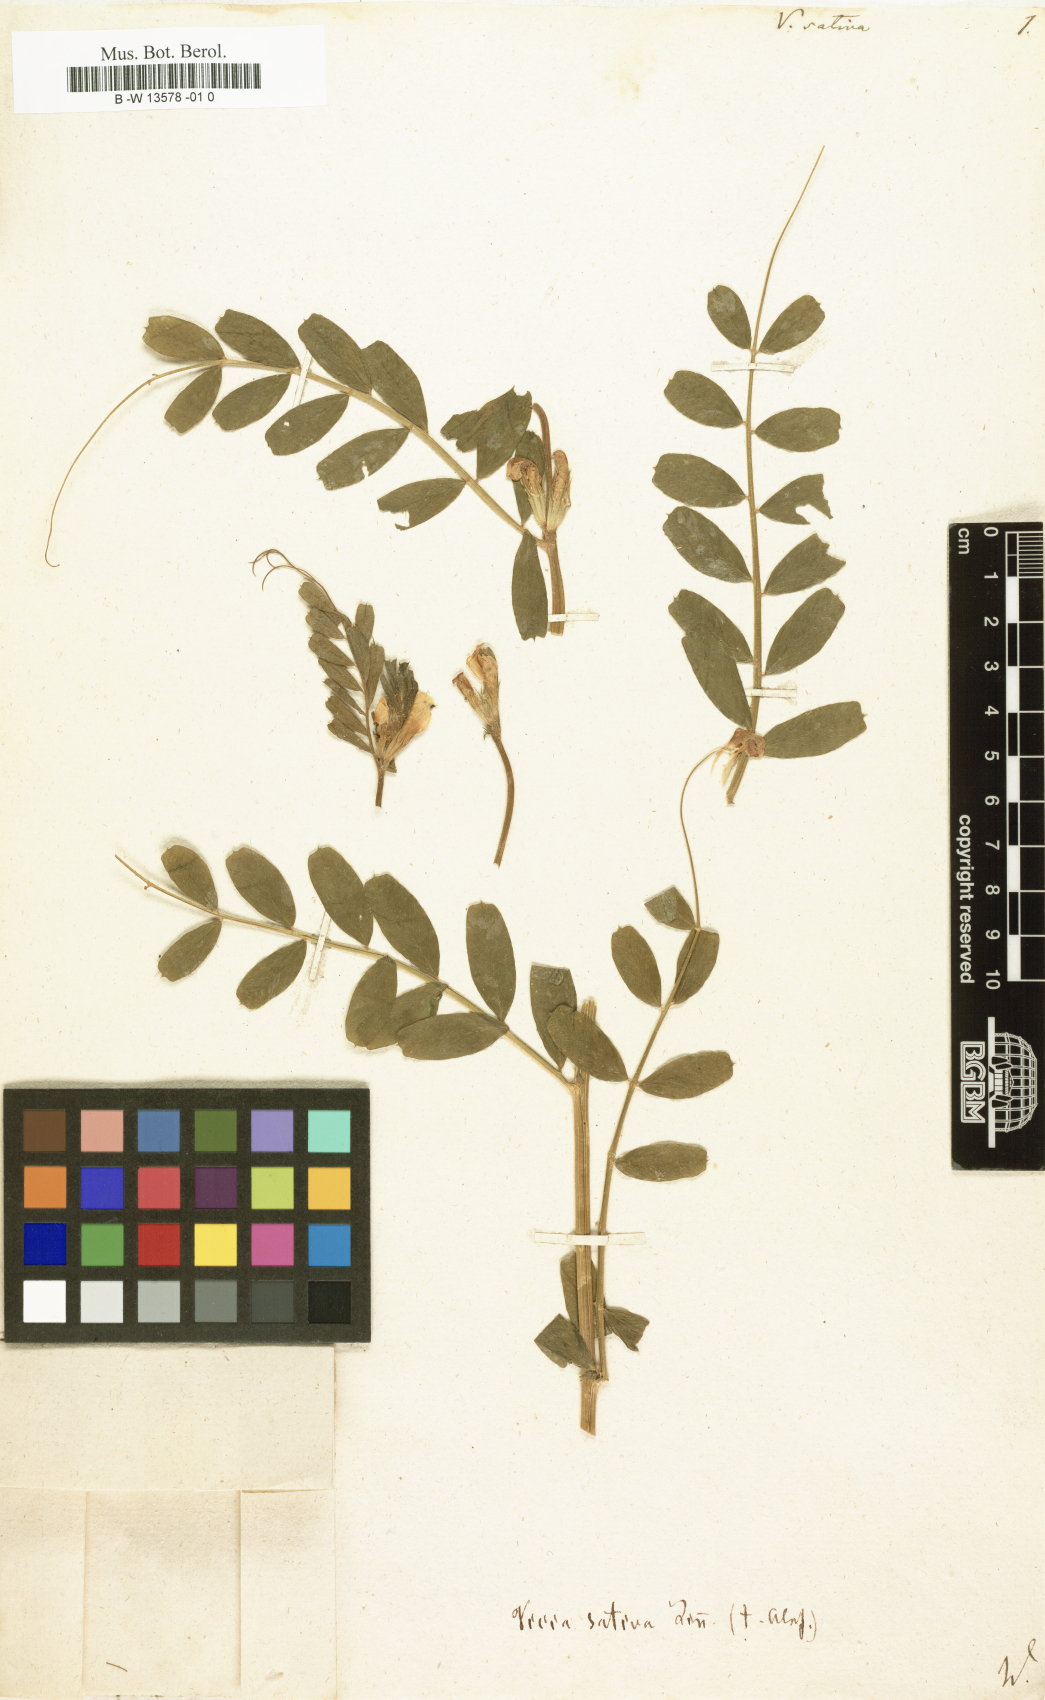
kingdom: Plantae
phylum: Tracheophyta
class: Magnoliopsida
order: Fabales
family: Fabaceae
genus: Vicia
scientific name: Vicia sativa
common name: Garden vetch
